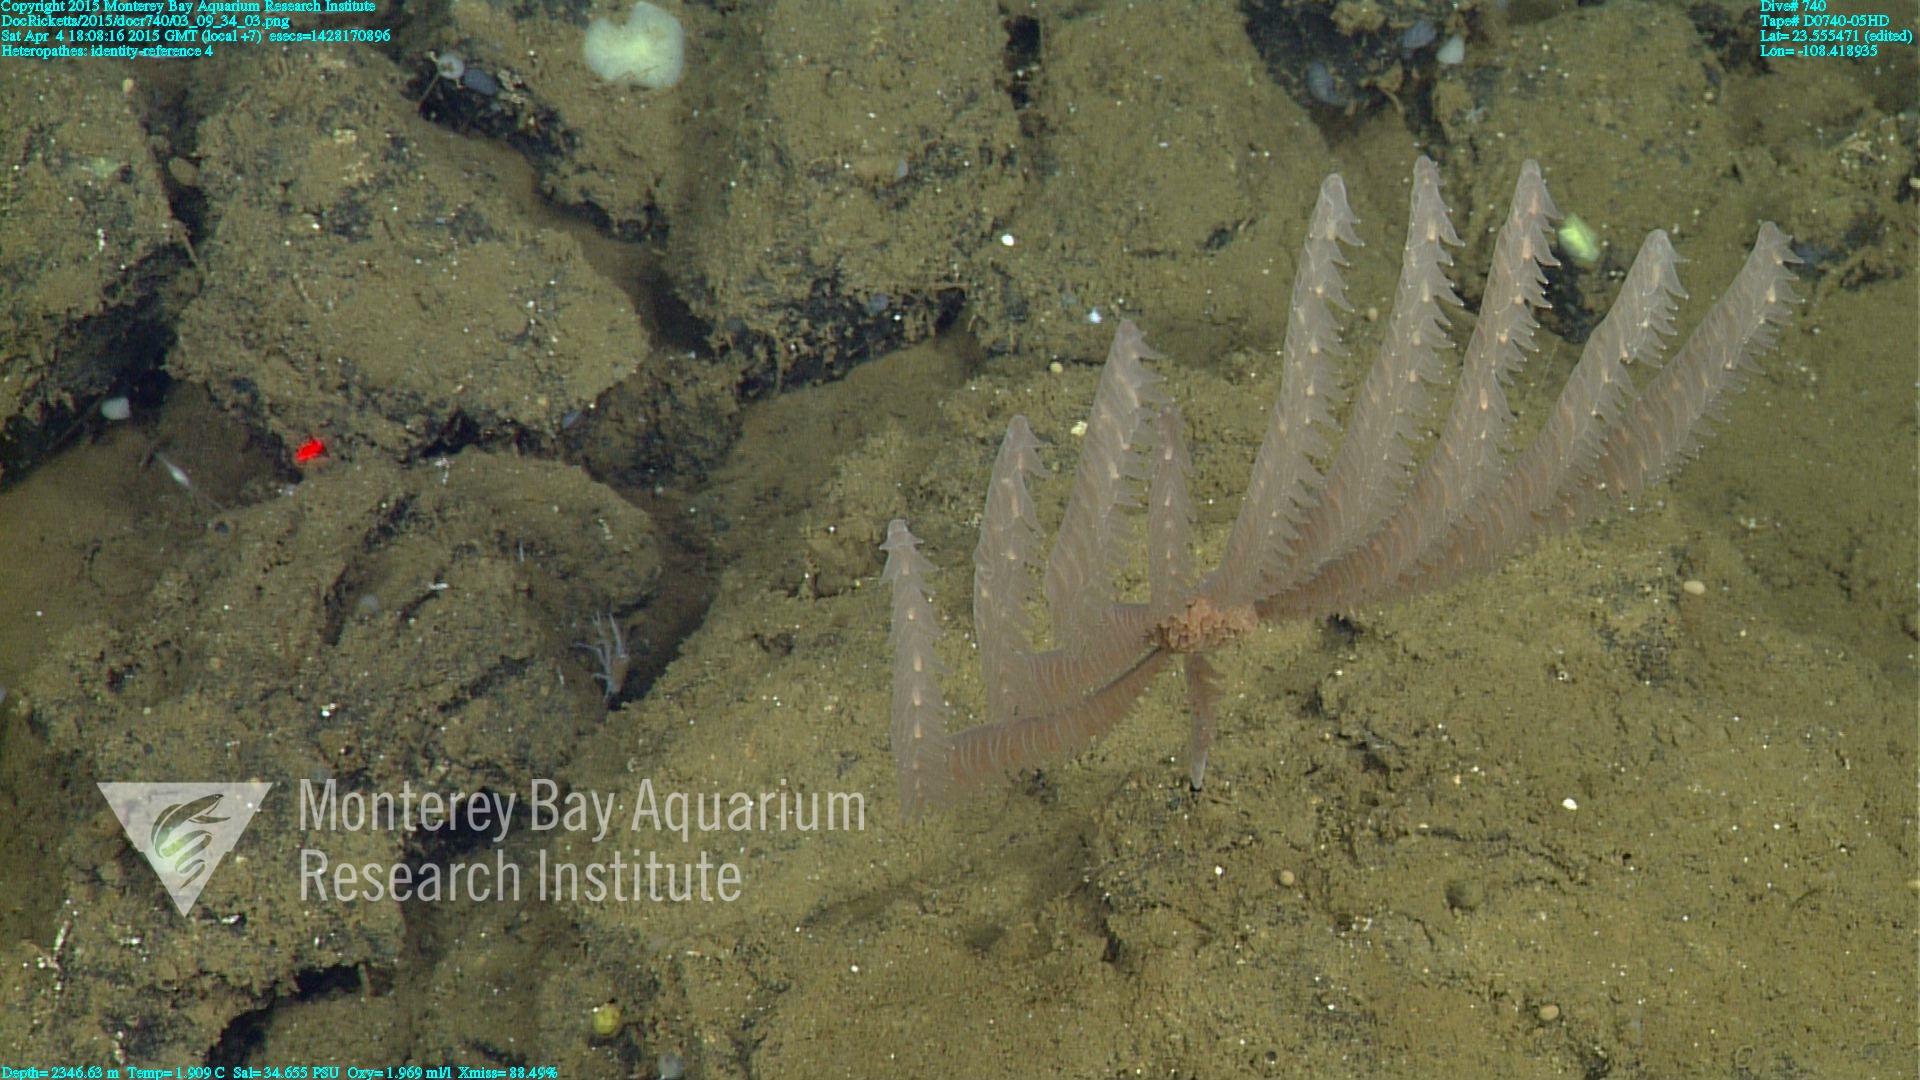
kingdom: Animalia
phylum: Cnidaria
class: Anthozoa
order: Antipatharia
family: Cladopathidae
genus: Heteropathes
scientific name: Heteropathes
